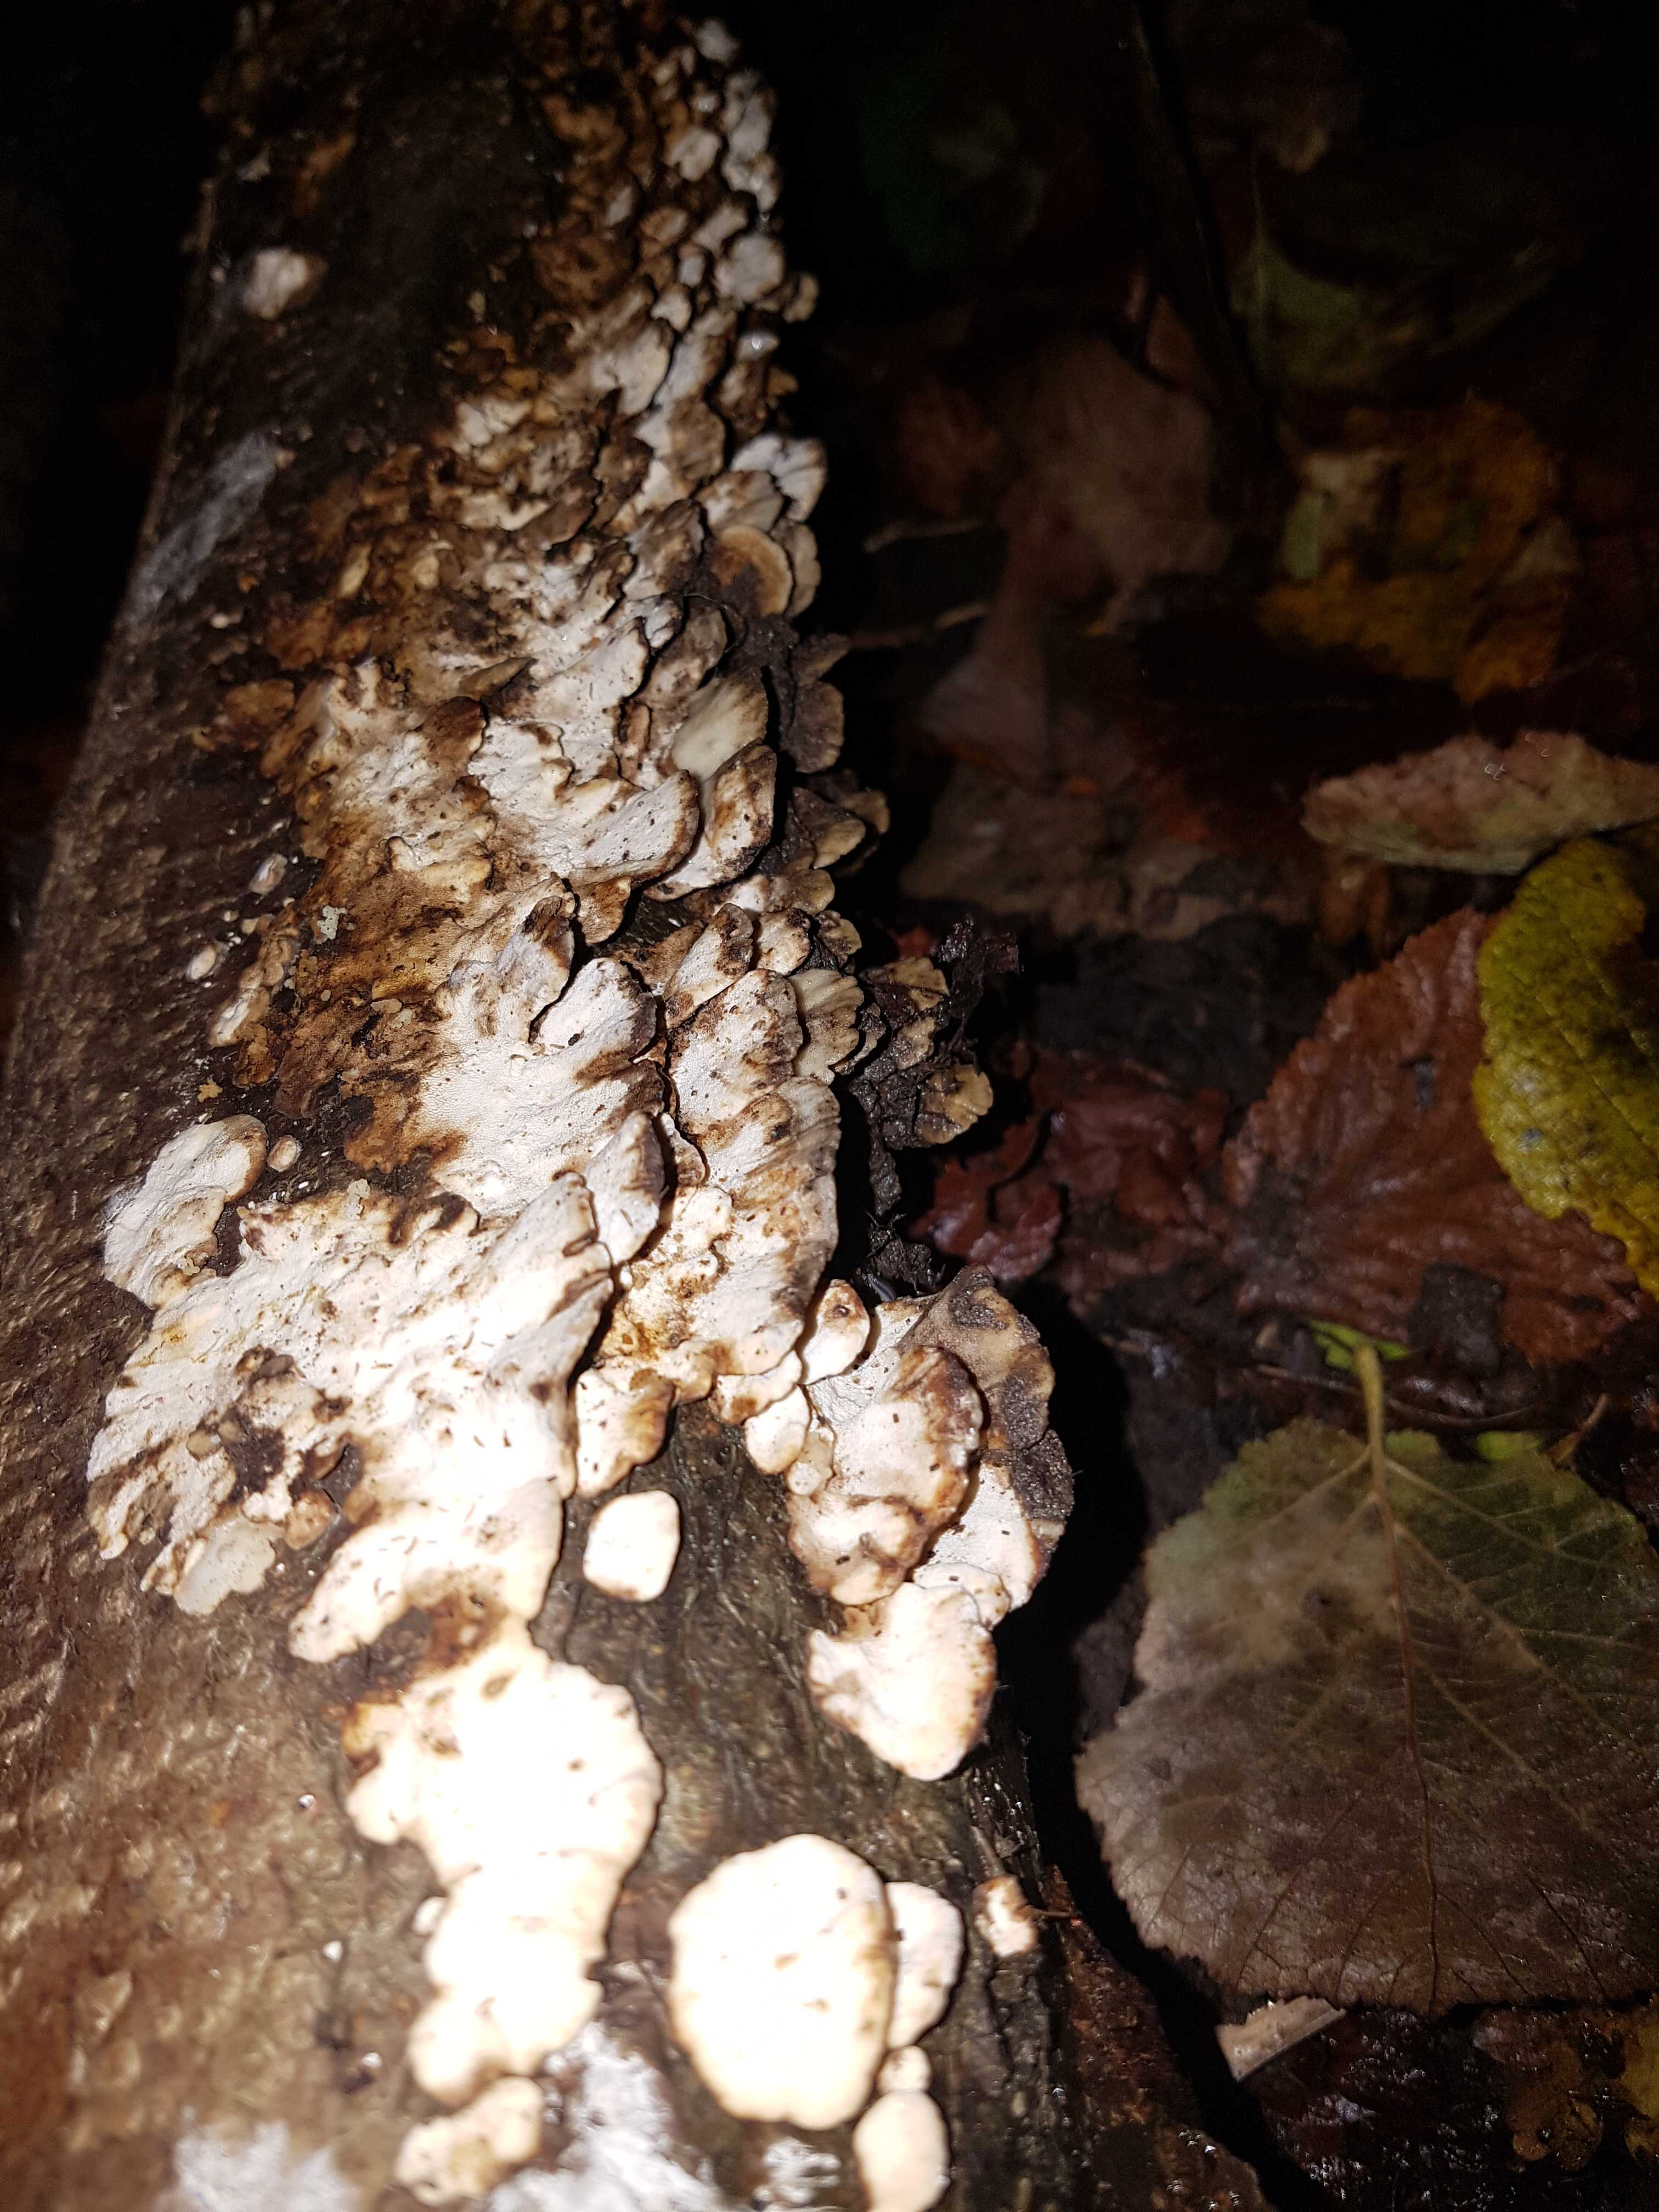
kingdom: Fungi
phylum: Basidiomycota
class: Agaricomycetes
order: Polyporales
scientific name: Polyporales
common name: poresvampordenen
